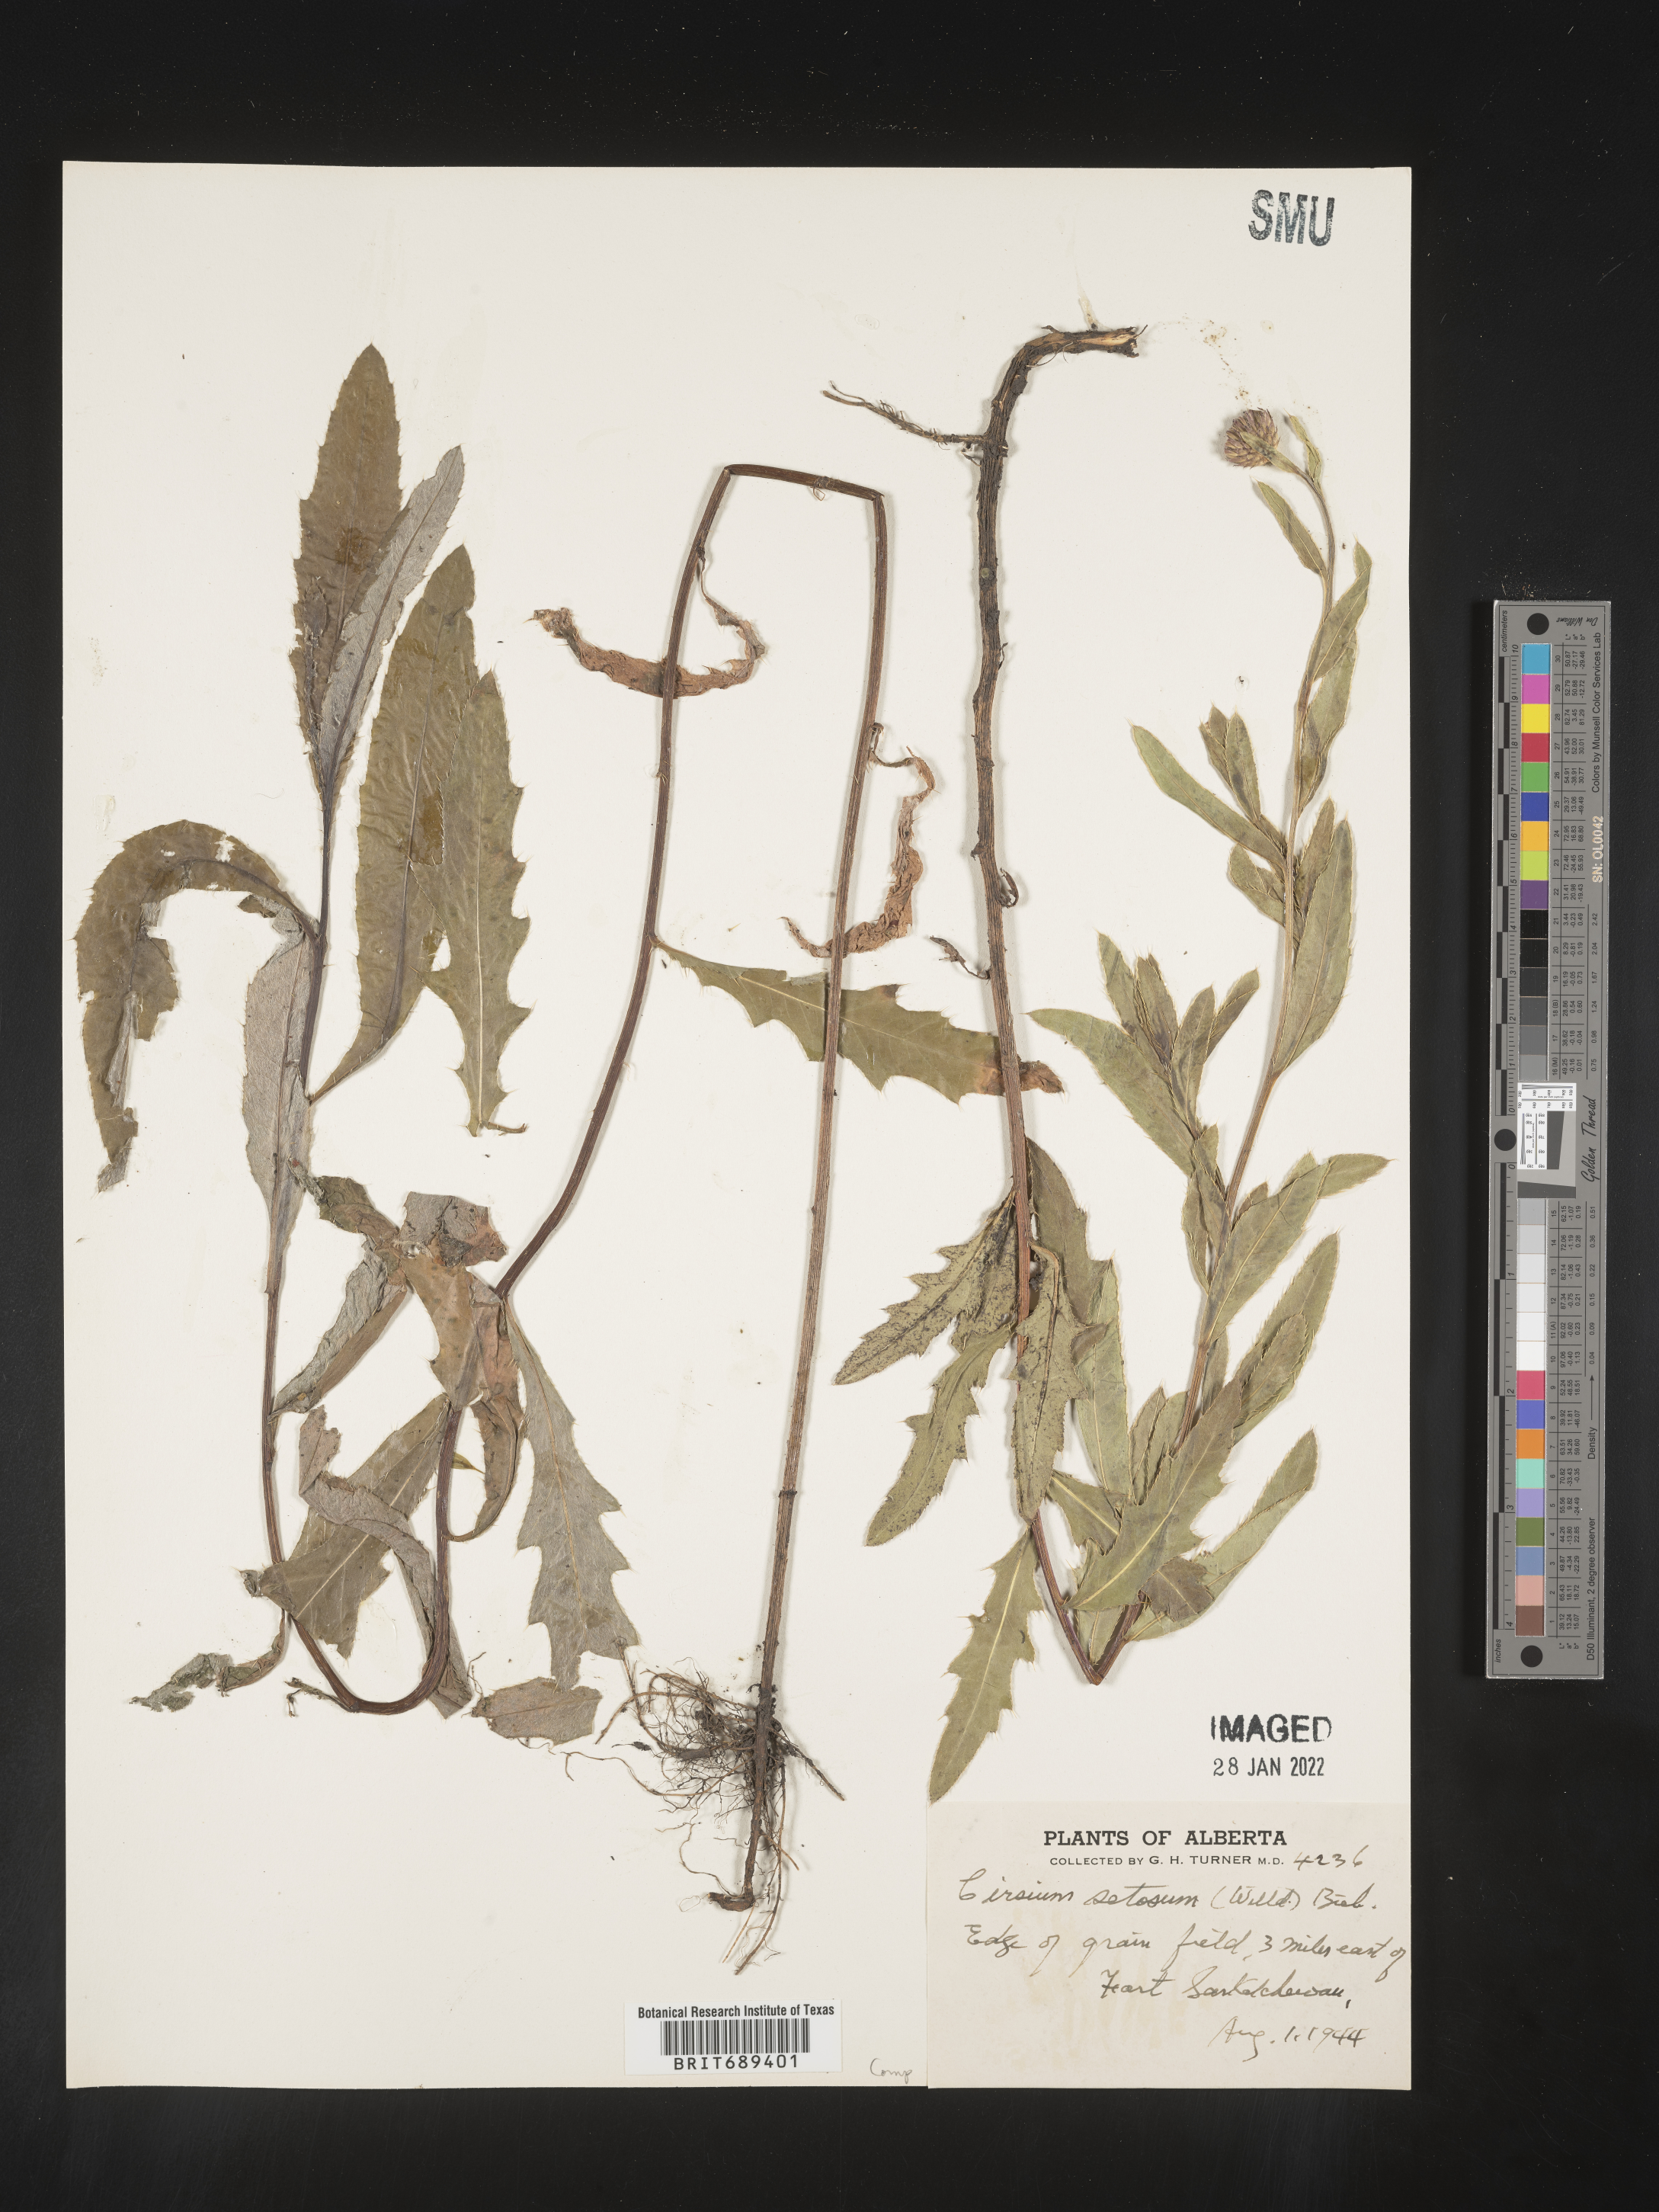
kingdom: Plantae
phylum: Tracheophyta
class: Magnoliopsida
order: Asterales
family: Asteraceae
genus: Cirsium
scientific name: Cirsium arvense
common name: Creeping thistle
